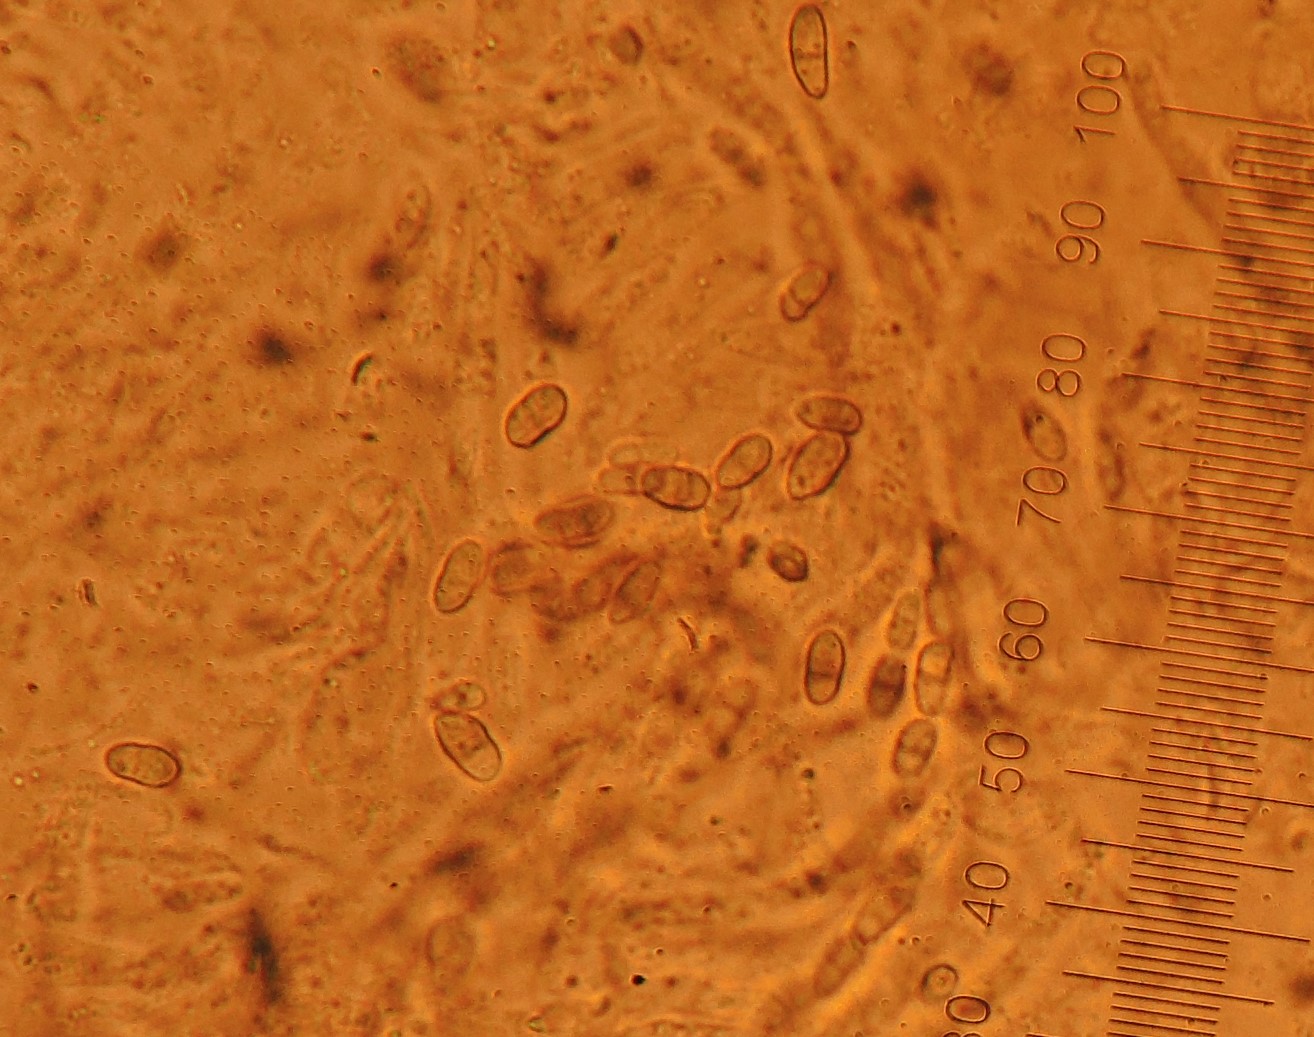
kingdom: Fungi
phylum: Ascomycota
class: Sordariomycetes
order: Hypocreales
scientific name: Hypocreales
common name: kødkerneordenen
